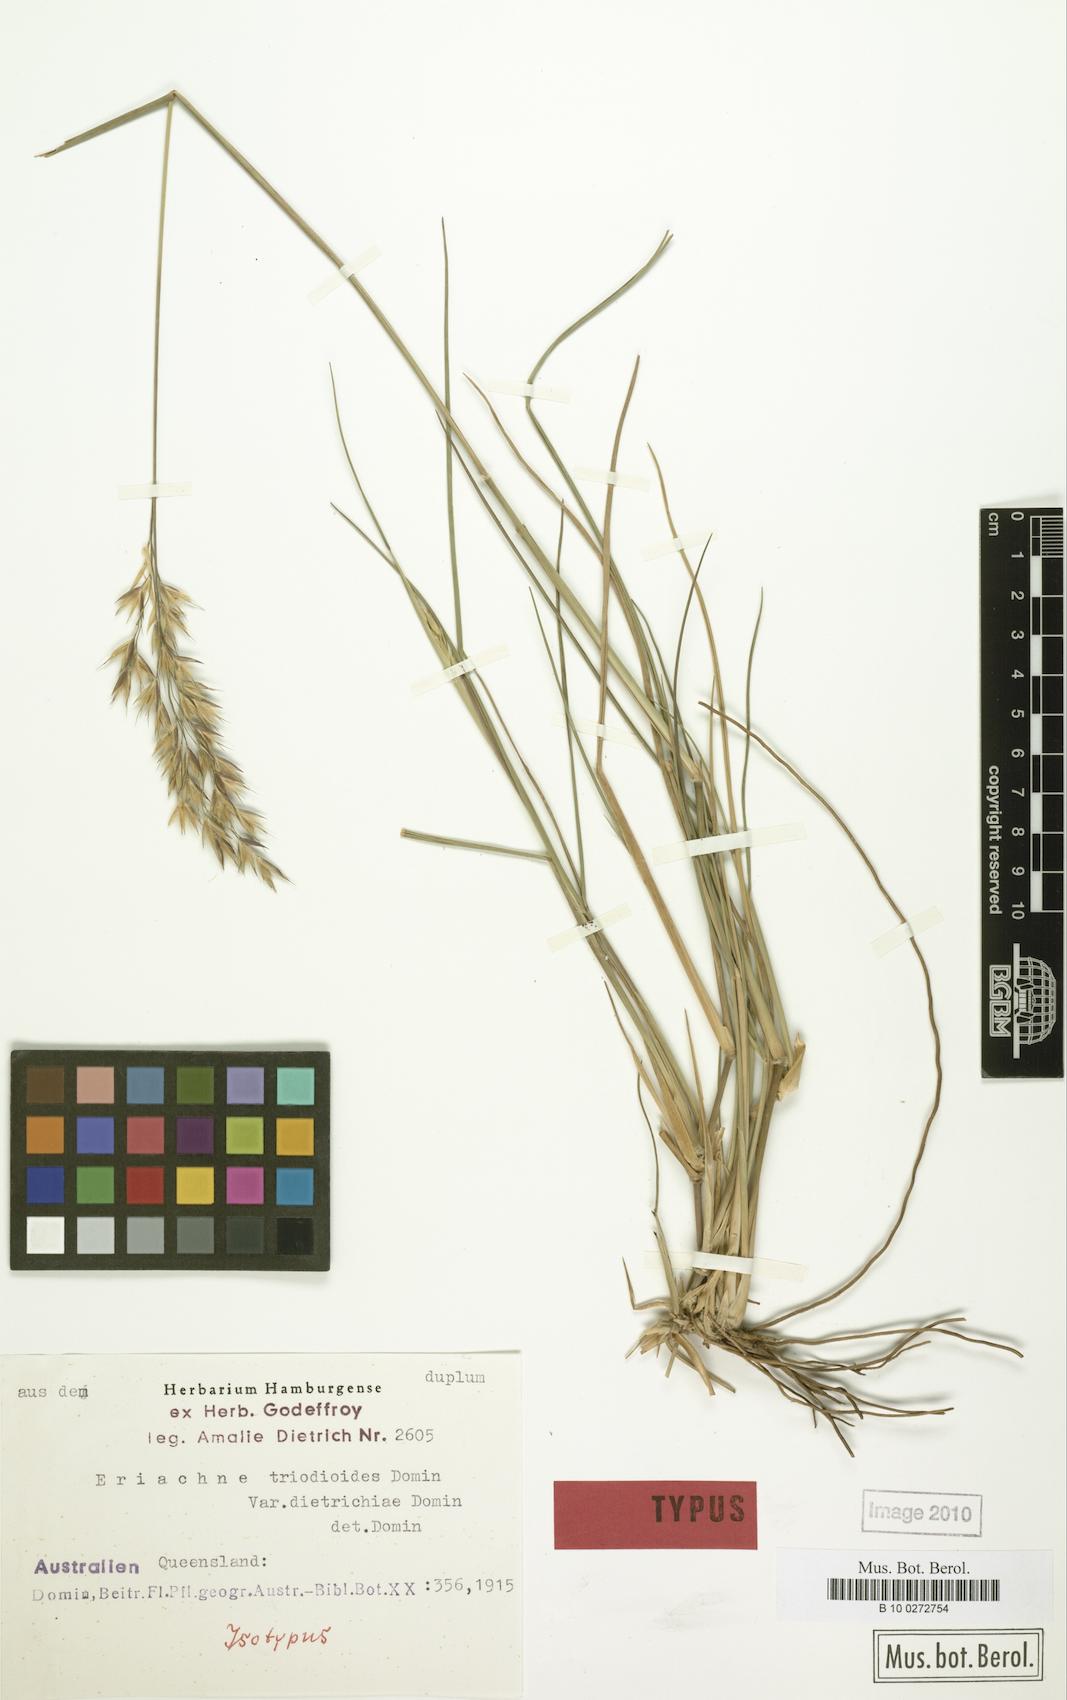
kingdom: Plantae
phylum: Tracheophyta
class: Liliopsida
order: Poales
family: Poaceae
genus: Eriachne
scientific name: Eriachne triodioides
